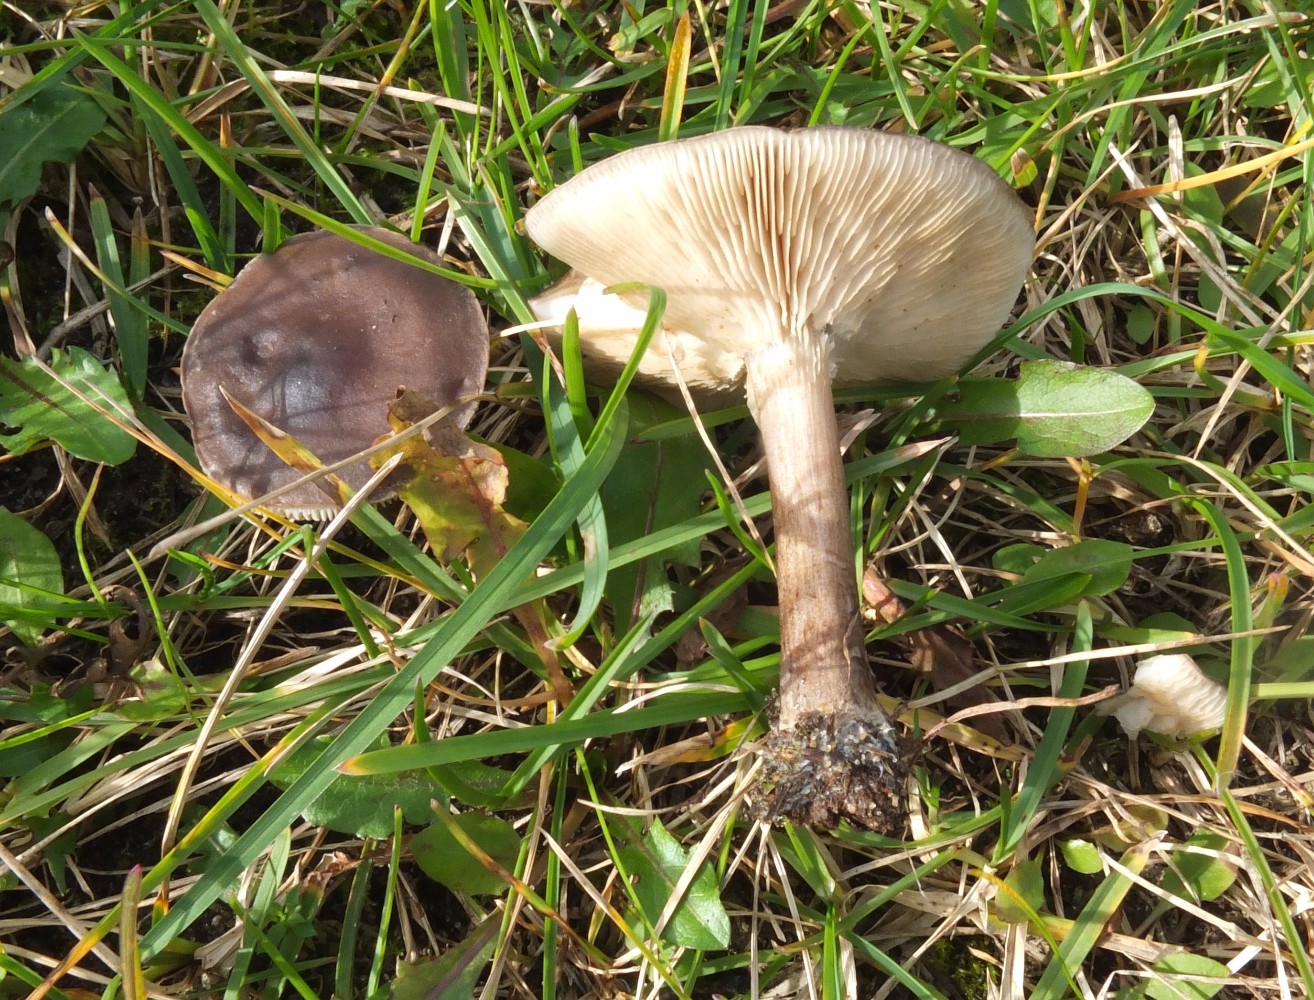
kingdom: Fungi
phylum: Basidiomycota
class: Agaricomycetes
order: Agaricales
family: Tricholomataceae
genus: Melanoleuca
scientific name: Melanoleuca polioleuca
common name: hvidbladet munkehat
